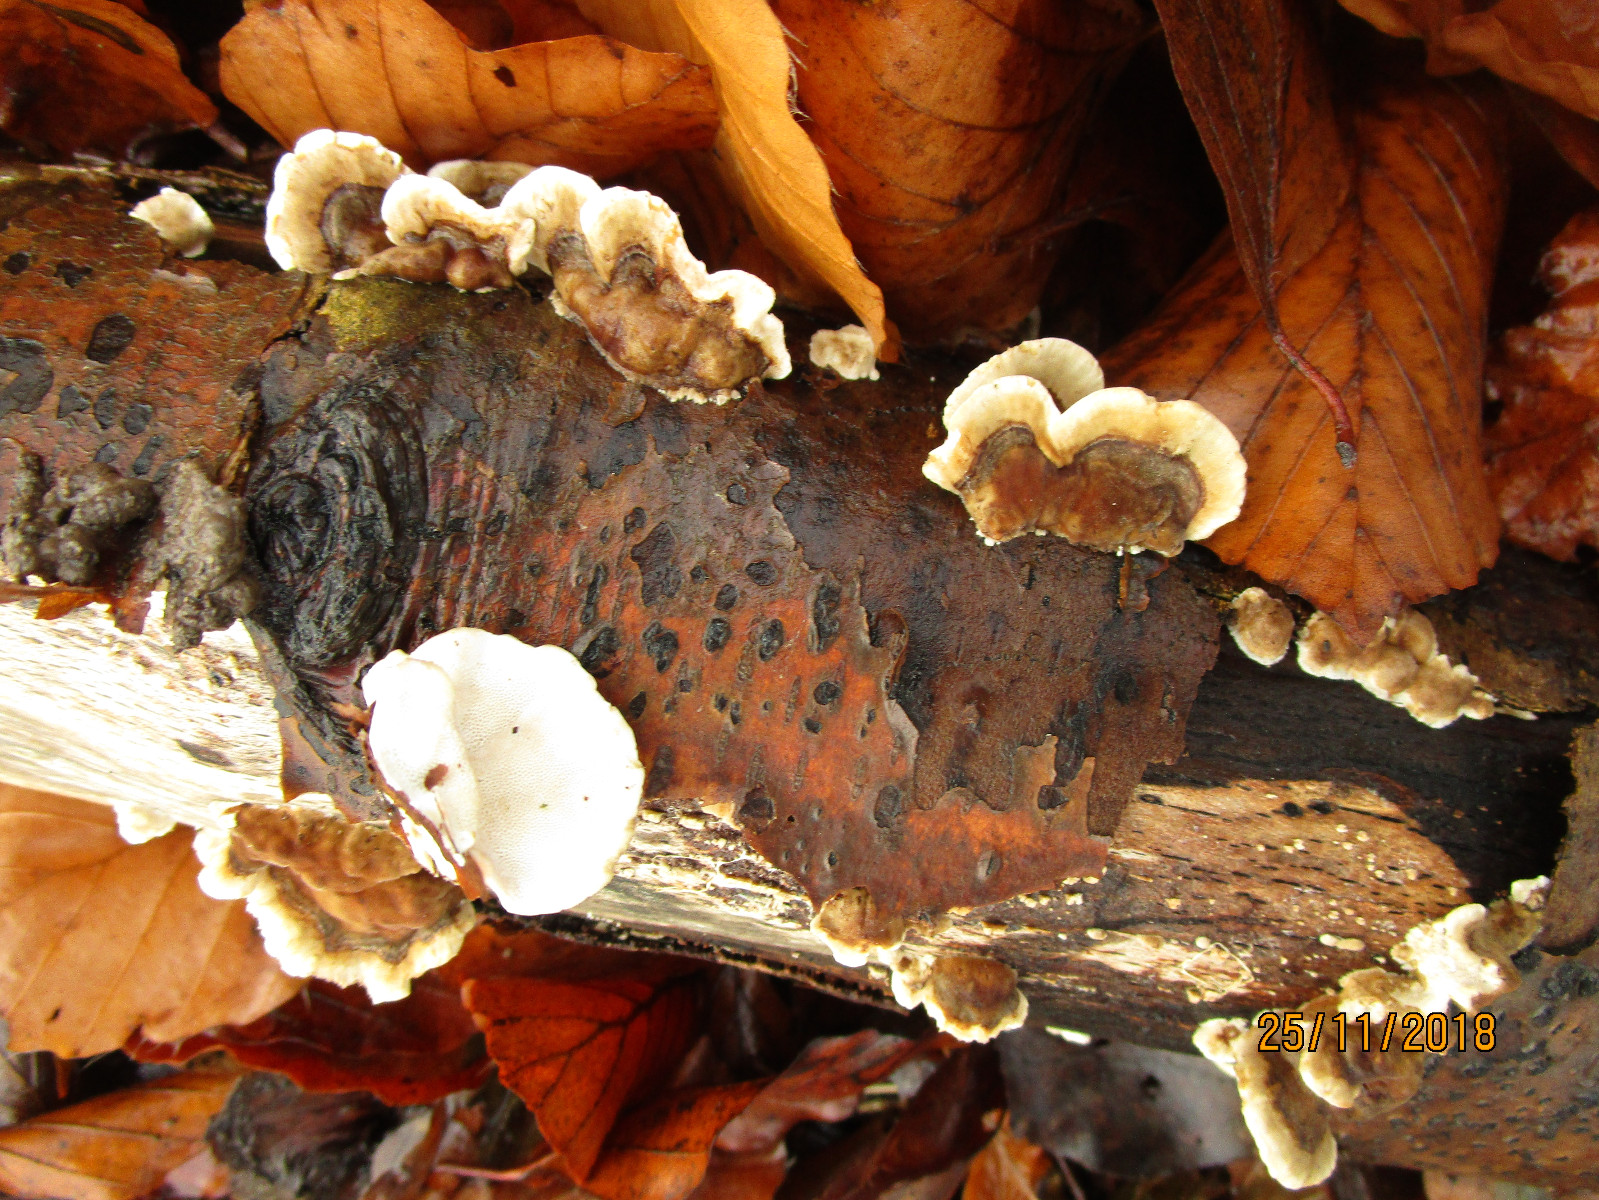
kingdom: Fungi
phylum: Basidiomycota
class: Agaricomycetes
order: Russulales
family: Stereaceae
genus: Stereum
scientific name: Stereum subtomentosum
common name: smuk lædersvamp
